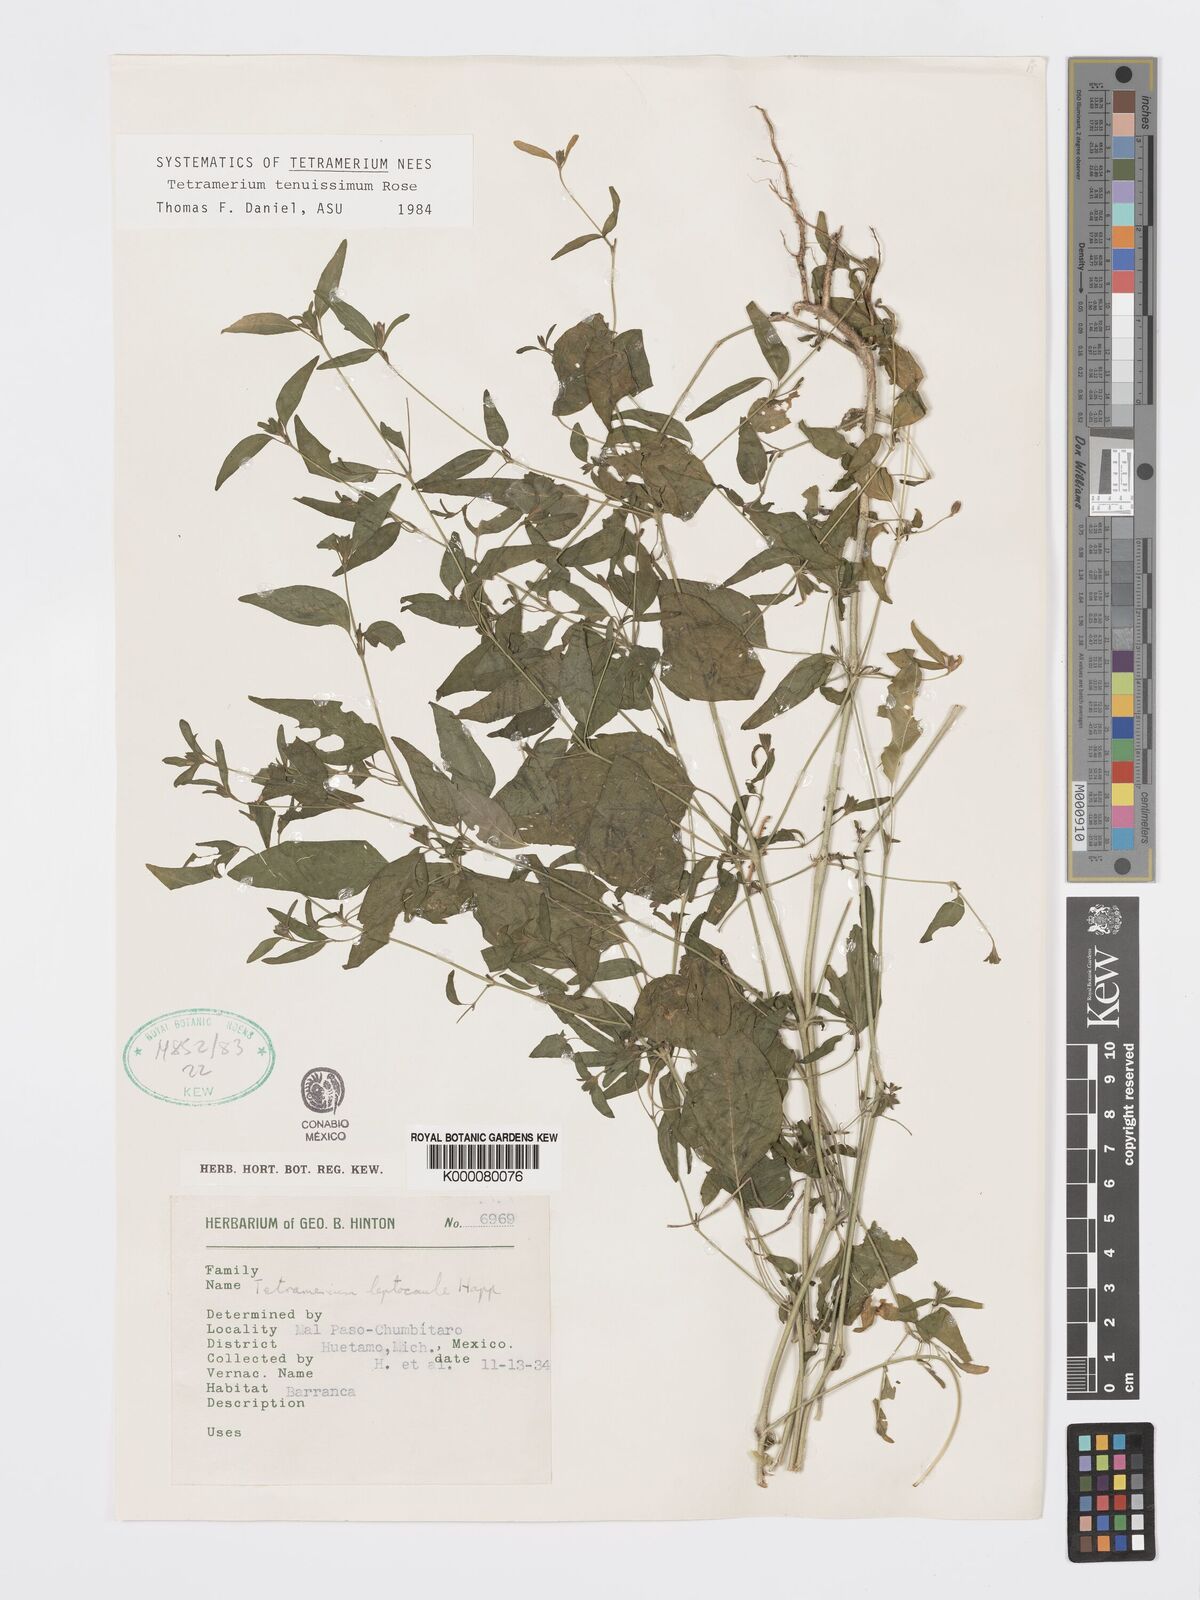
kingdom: Plantae
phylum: Tracheophyta
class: Magnoliopsida
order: Lamiales
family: Acanthaceae
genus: Tetramerium
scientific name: Tetramerium tenuissimum
